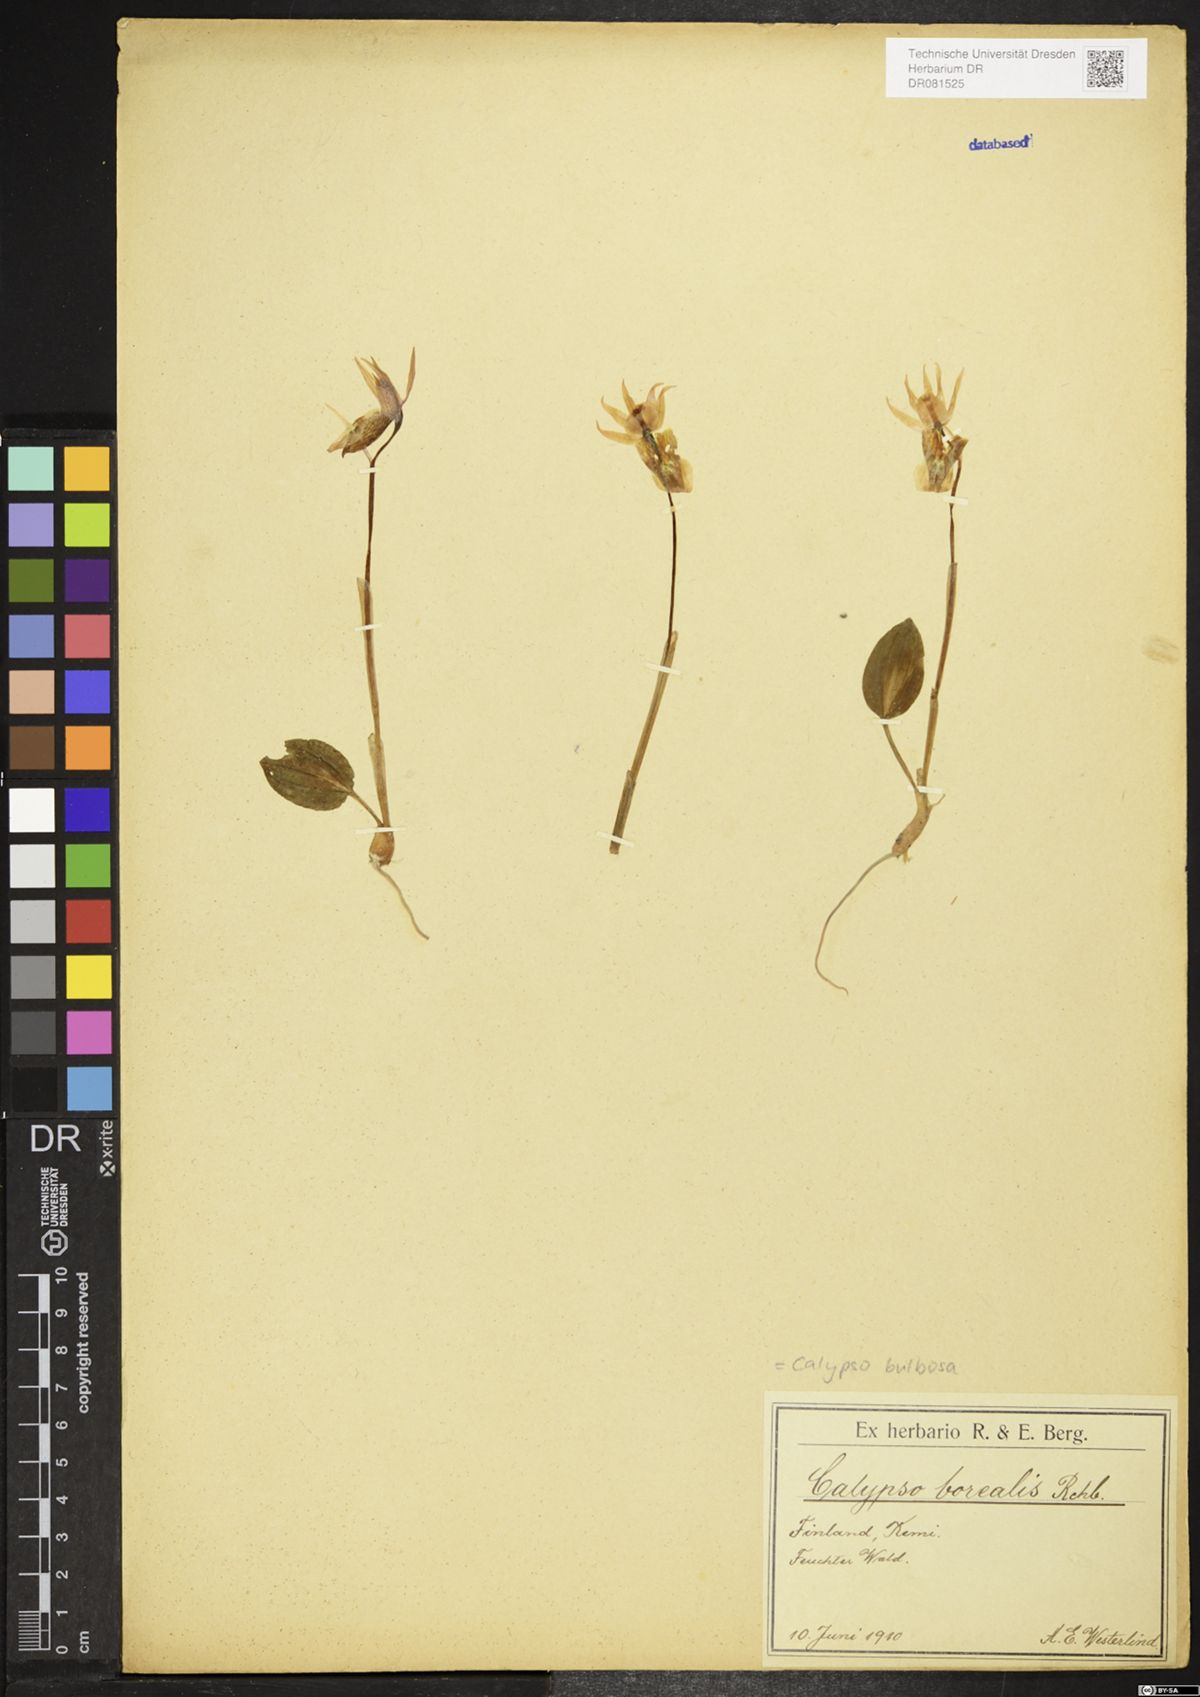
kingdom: Plantae
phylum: Tracheophyta
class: Liliopsida
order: Asparagales
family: Orchidaceae
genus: Calypso
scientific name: Calypso bulbosa
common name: Calypso
